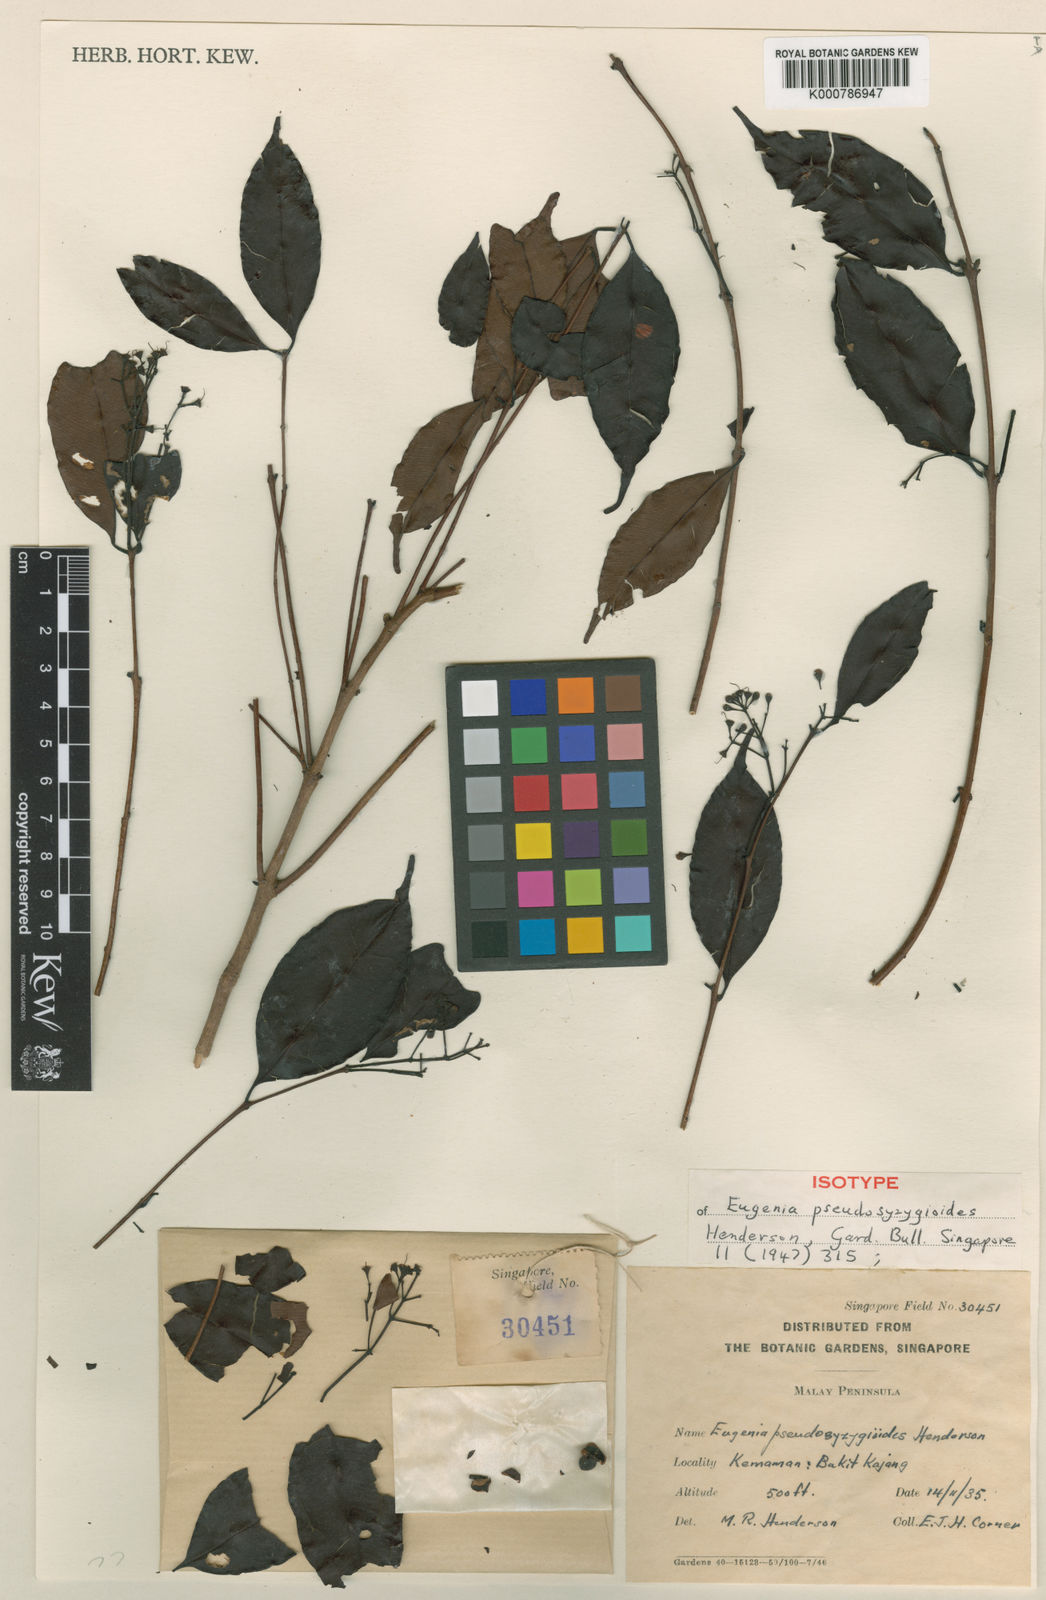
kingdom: Plantae
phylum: Tracheophyta
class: Magnoliopsida
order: Myrtales
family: Myrtaceae
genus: Syzygium
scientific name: Syzygium
